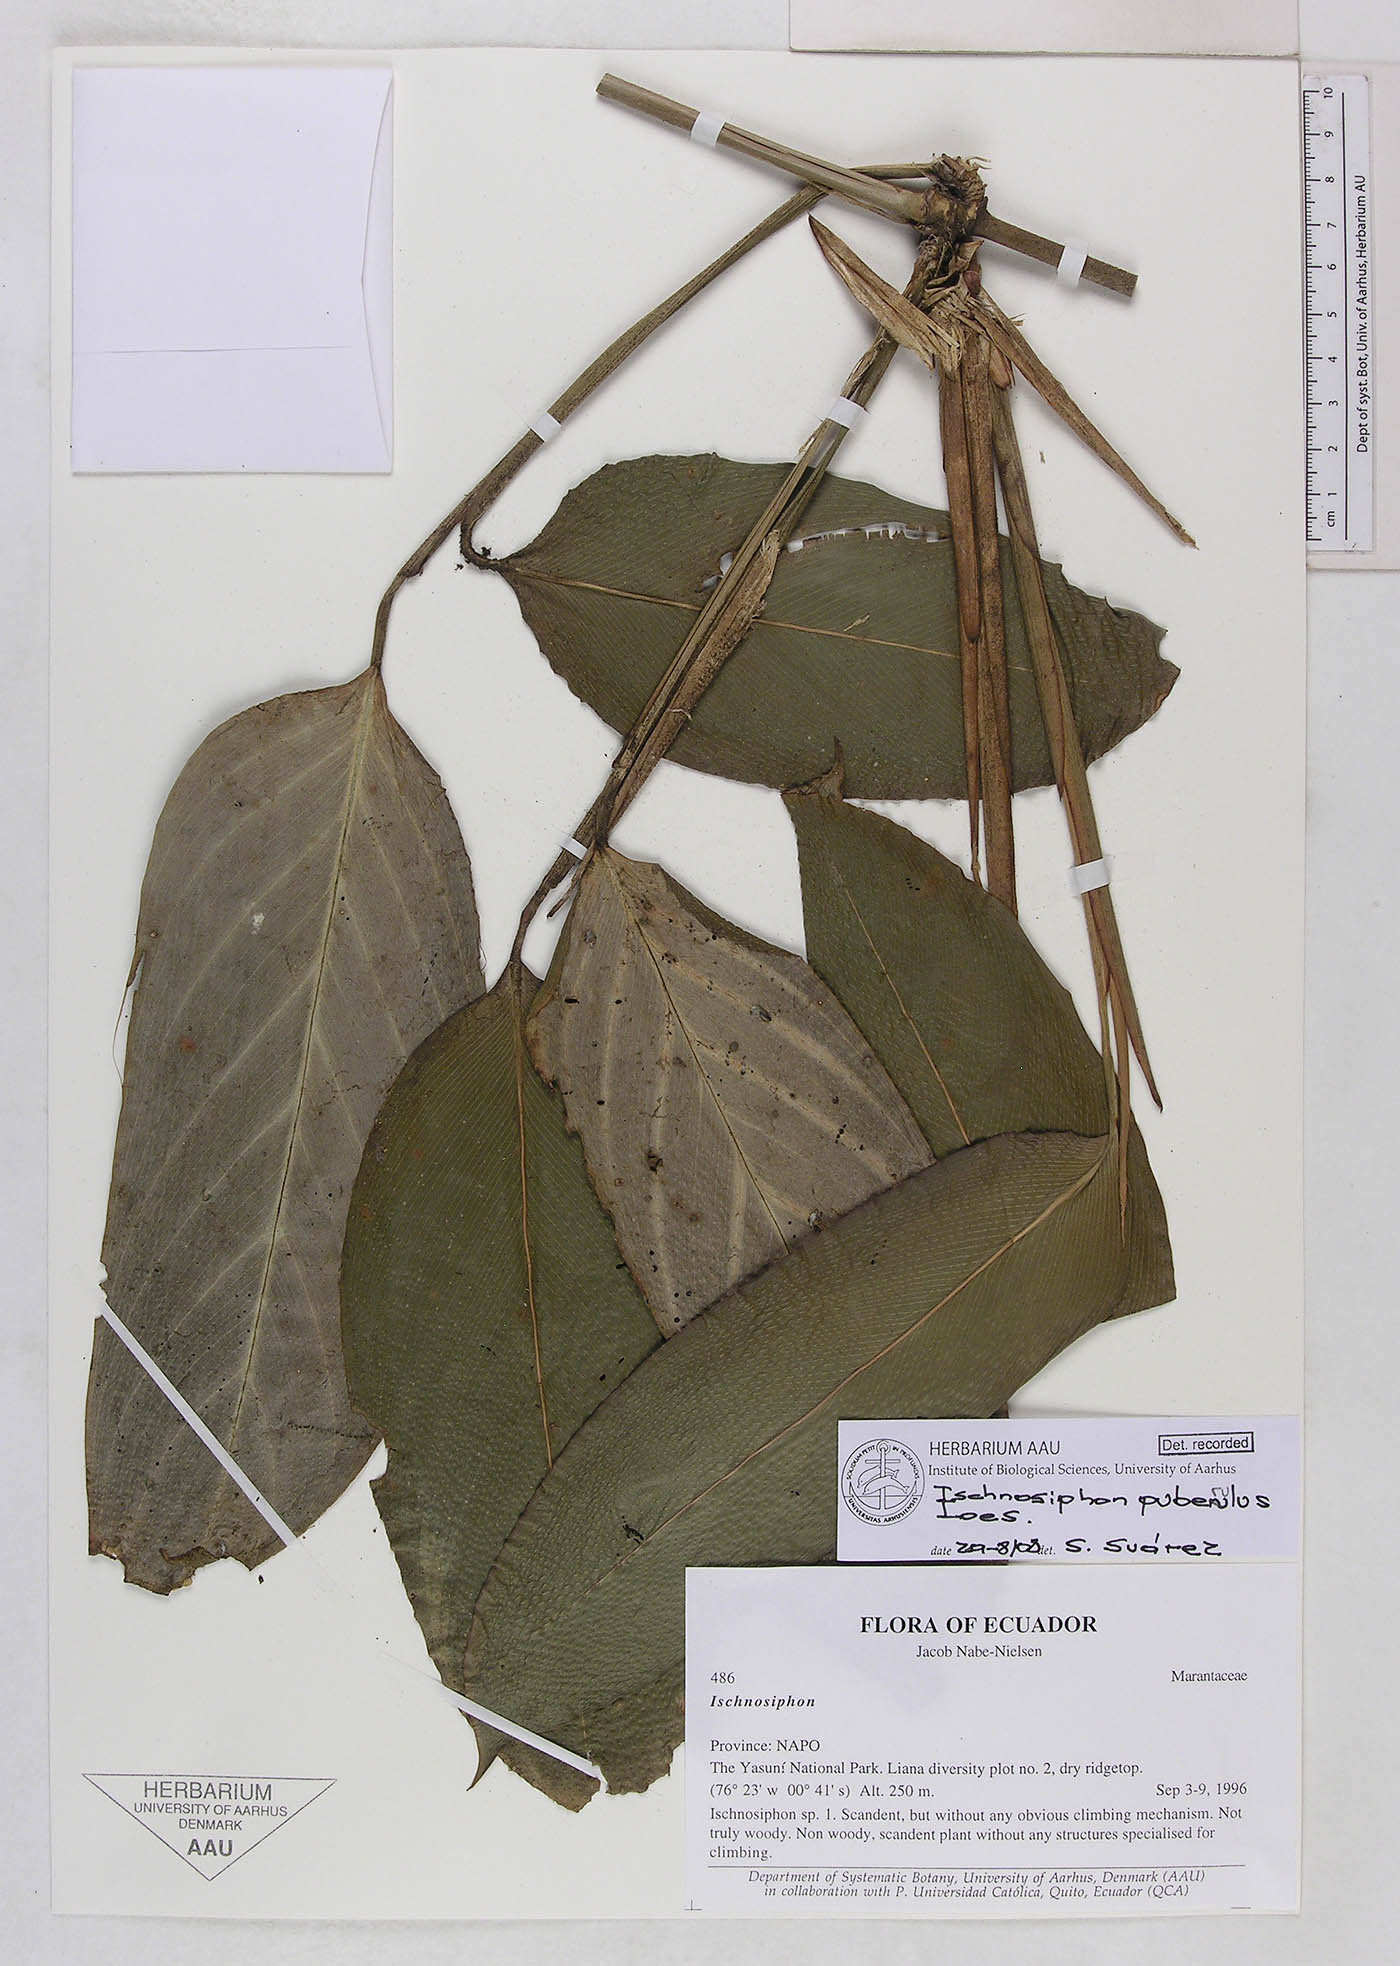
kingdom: Plantae
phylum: Tracheophyta
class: Liliopsida
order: Zingiberales
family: Marantaceae
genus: Ischnosiphon
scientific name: Ischnosiphon puberulus
